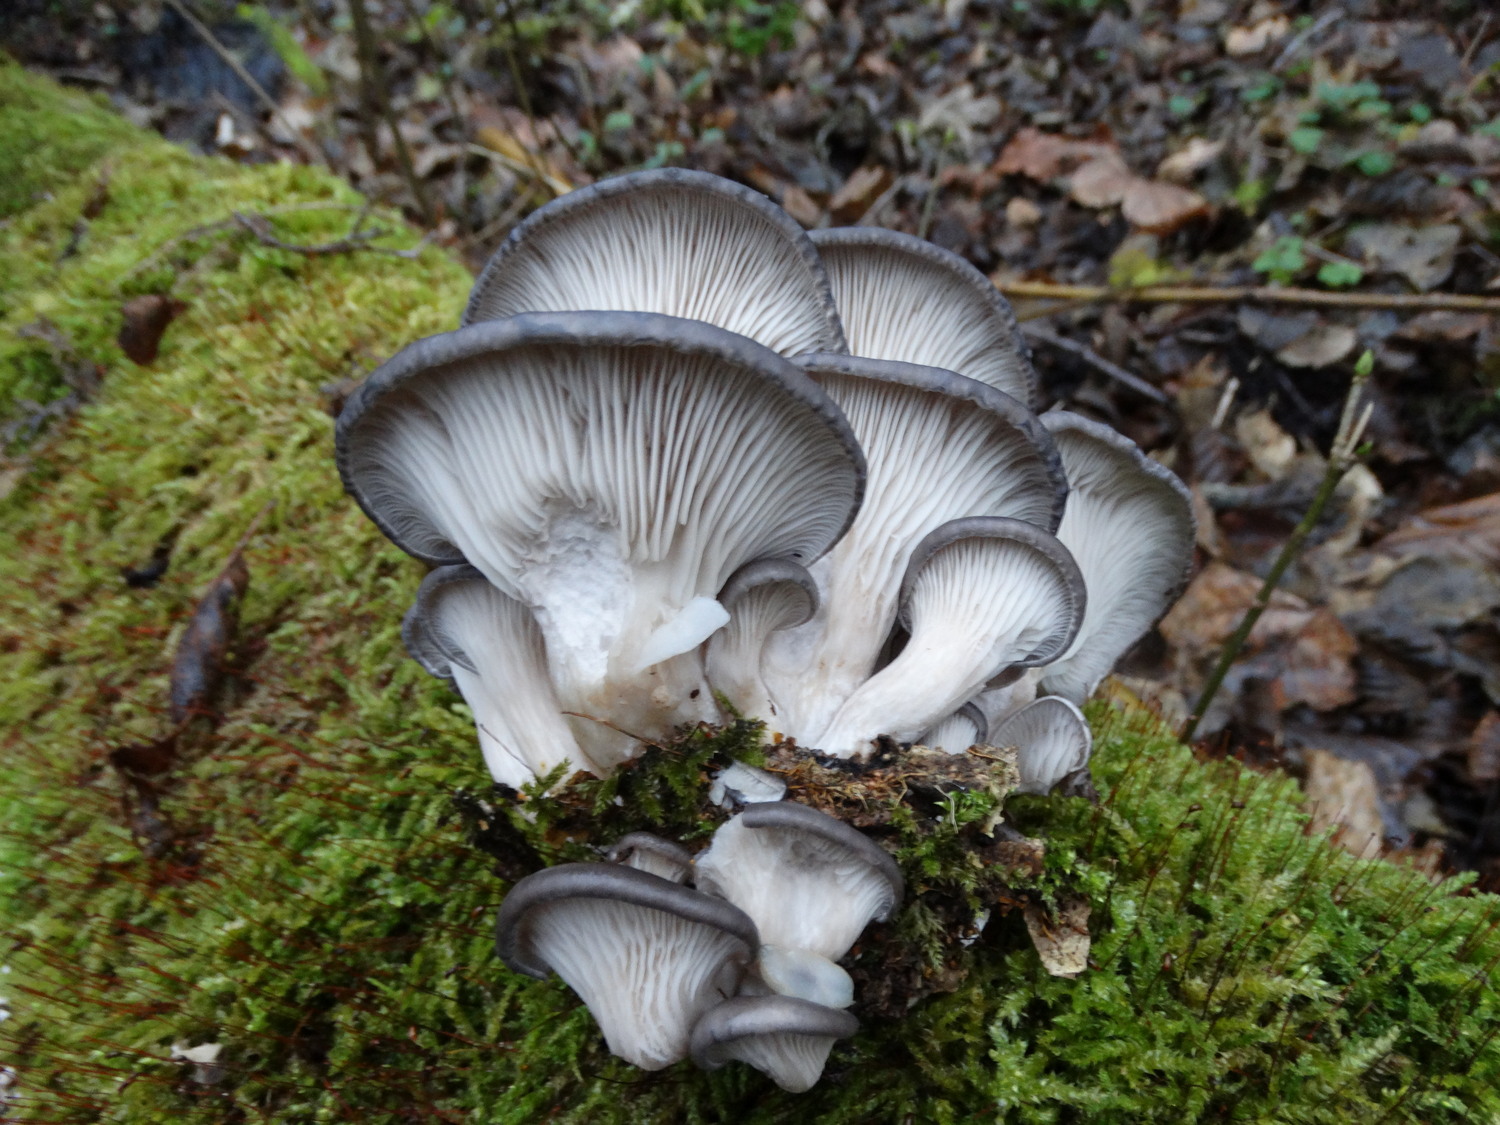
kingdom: Fungi
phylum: Basidiomycota
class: Agaricomycetes
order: Agaricales
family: Pleurotaceae
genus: Pleurotus
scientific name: Pleurotus ostreatus
